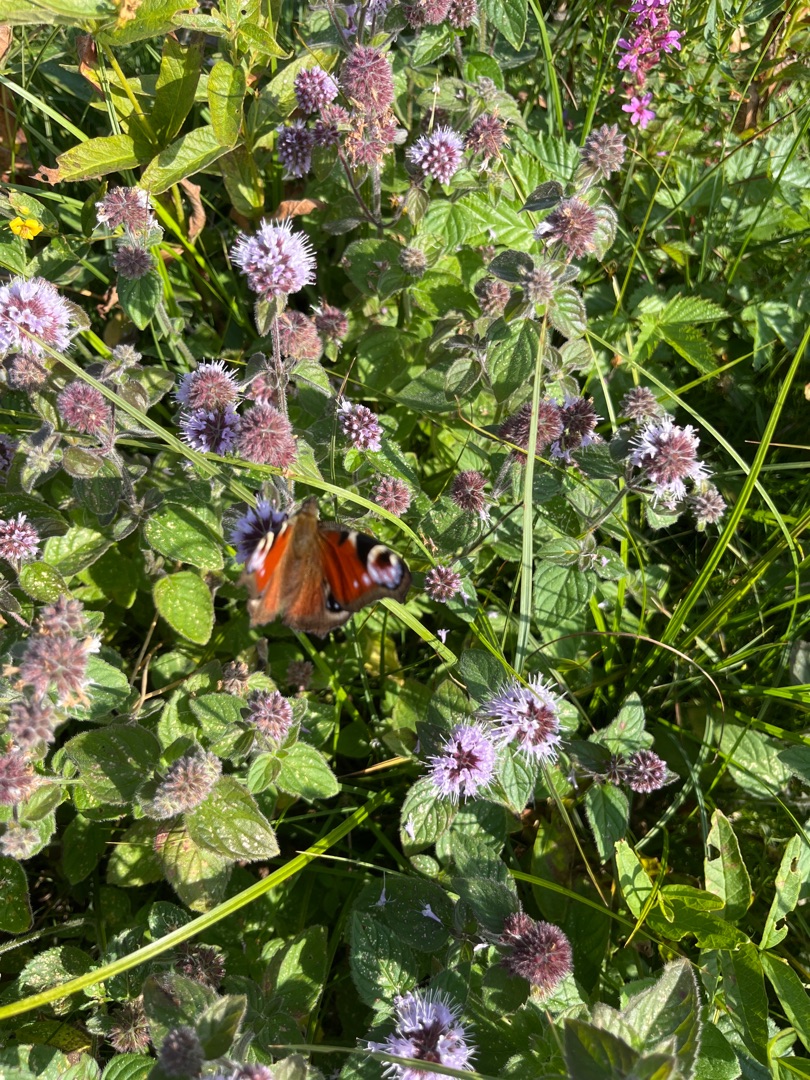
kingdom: Animalia
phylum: Arthropoda
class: Insecta
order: Lepidoptera
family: Nymphalidae
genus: Aglais
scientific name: Aglais io
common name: Dagpåfugleøje
